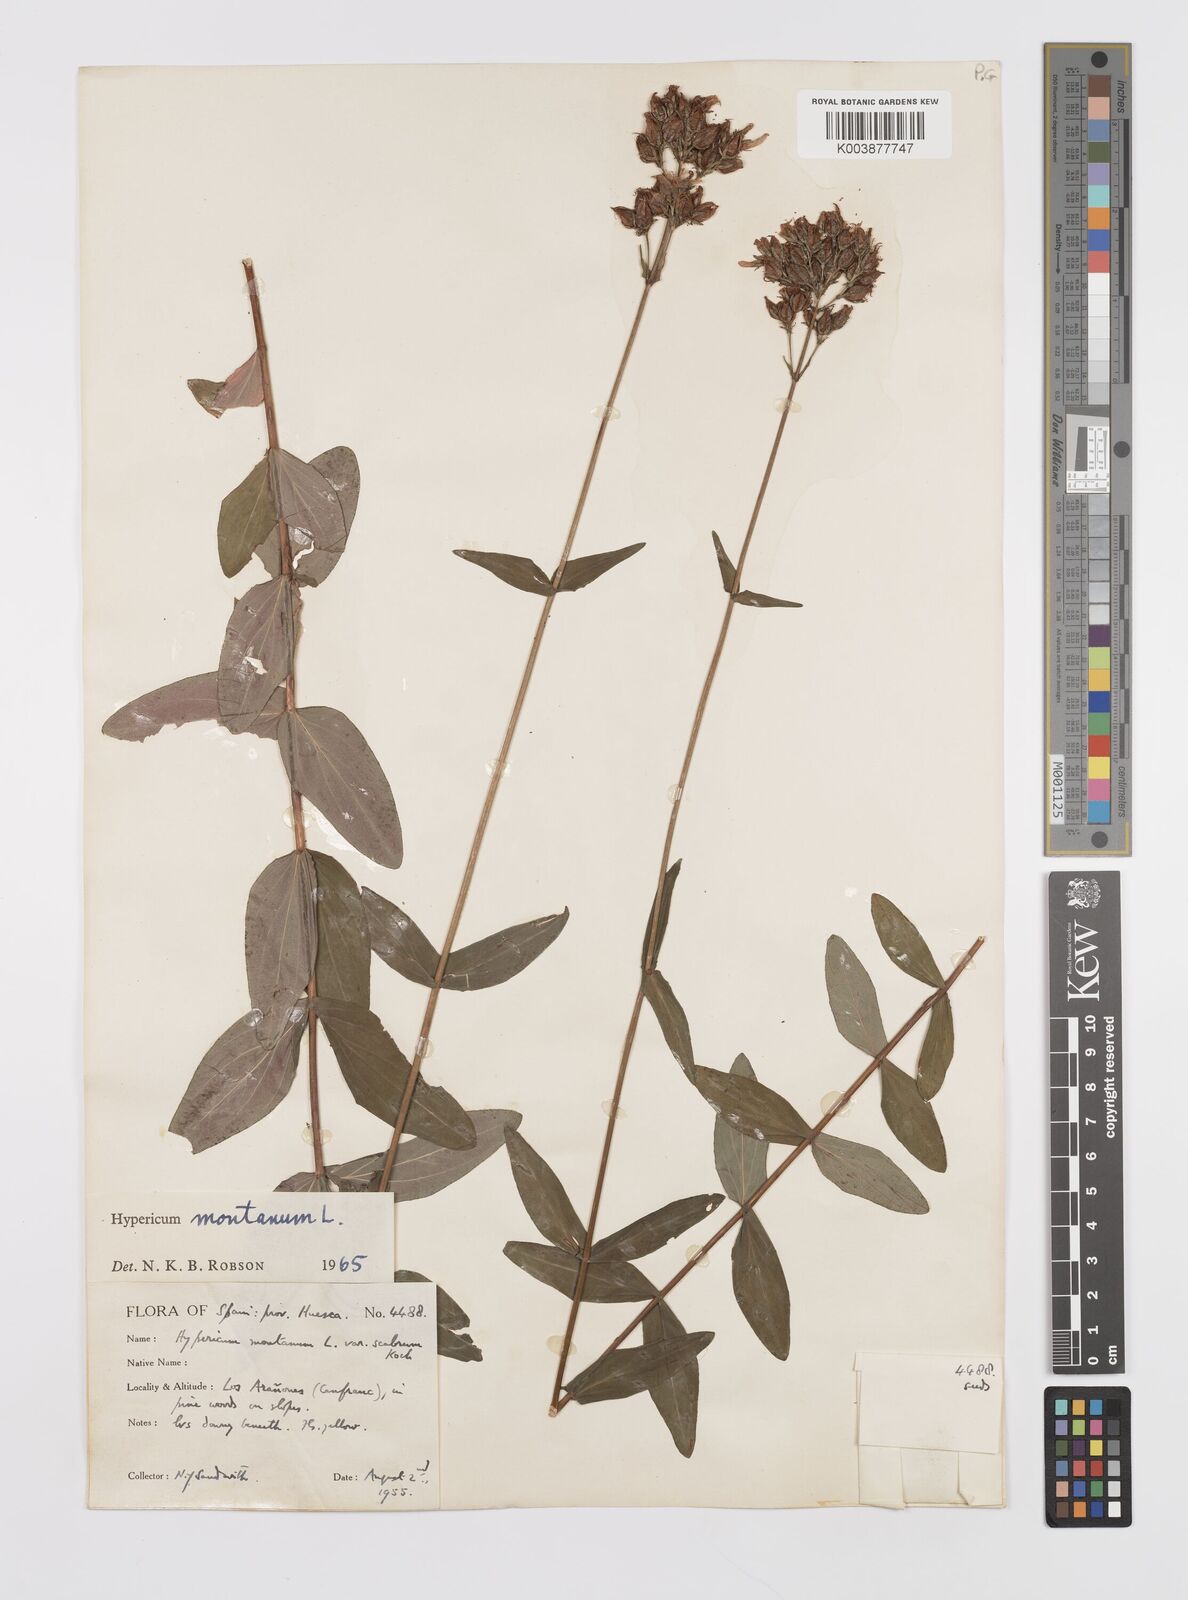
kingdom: Plantae
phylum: Tracheophyta
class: Magnoliopsida
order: Malpighiales
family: Hypericaceae
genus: Hypericum
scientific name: Hypericum montanum
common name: Pale st. john's-wort
